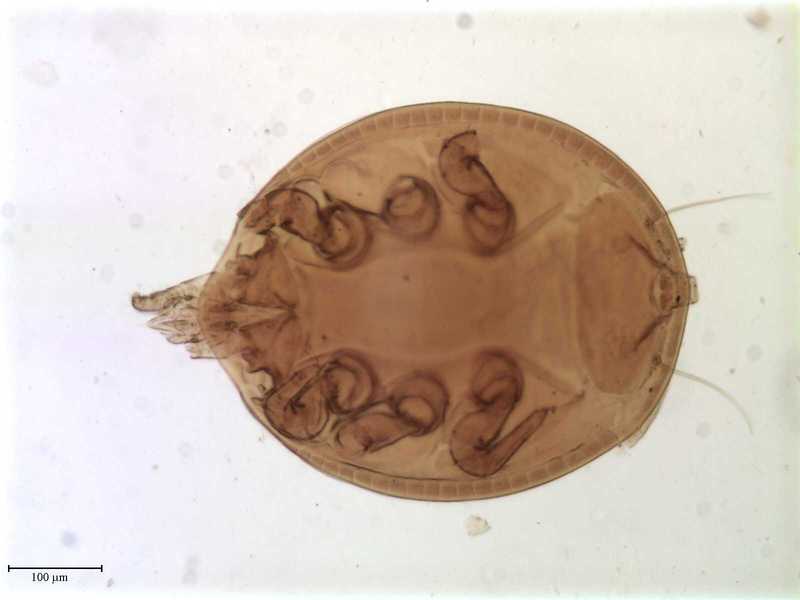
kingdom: Animalia
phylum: Arthropoda
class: Arachnida
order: Mesostigmata
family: Trematuridae
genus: Trichouropoda
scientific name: Trichouropoda bipilis
